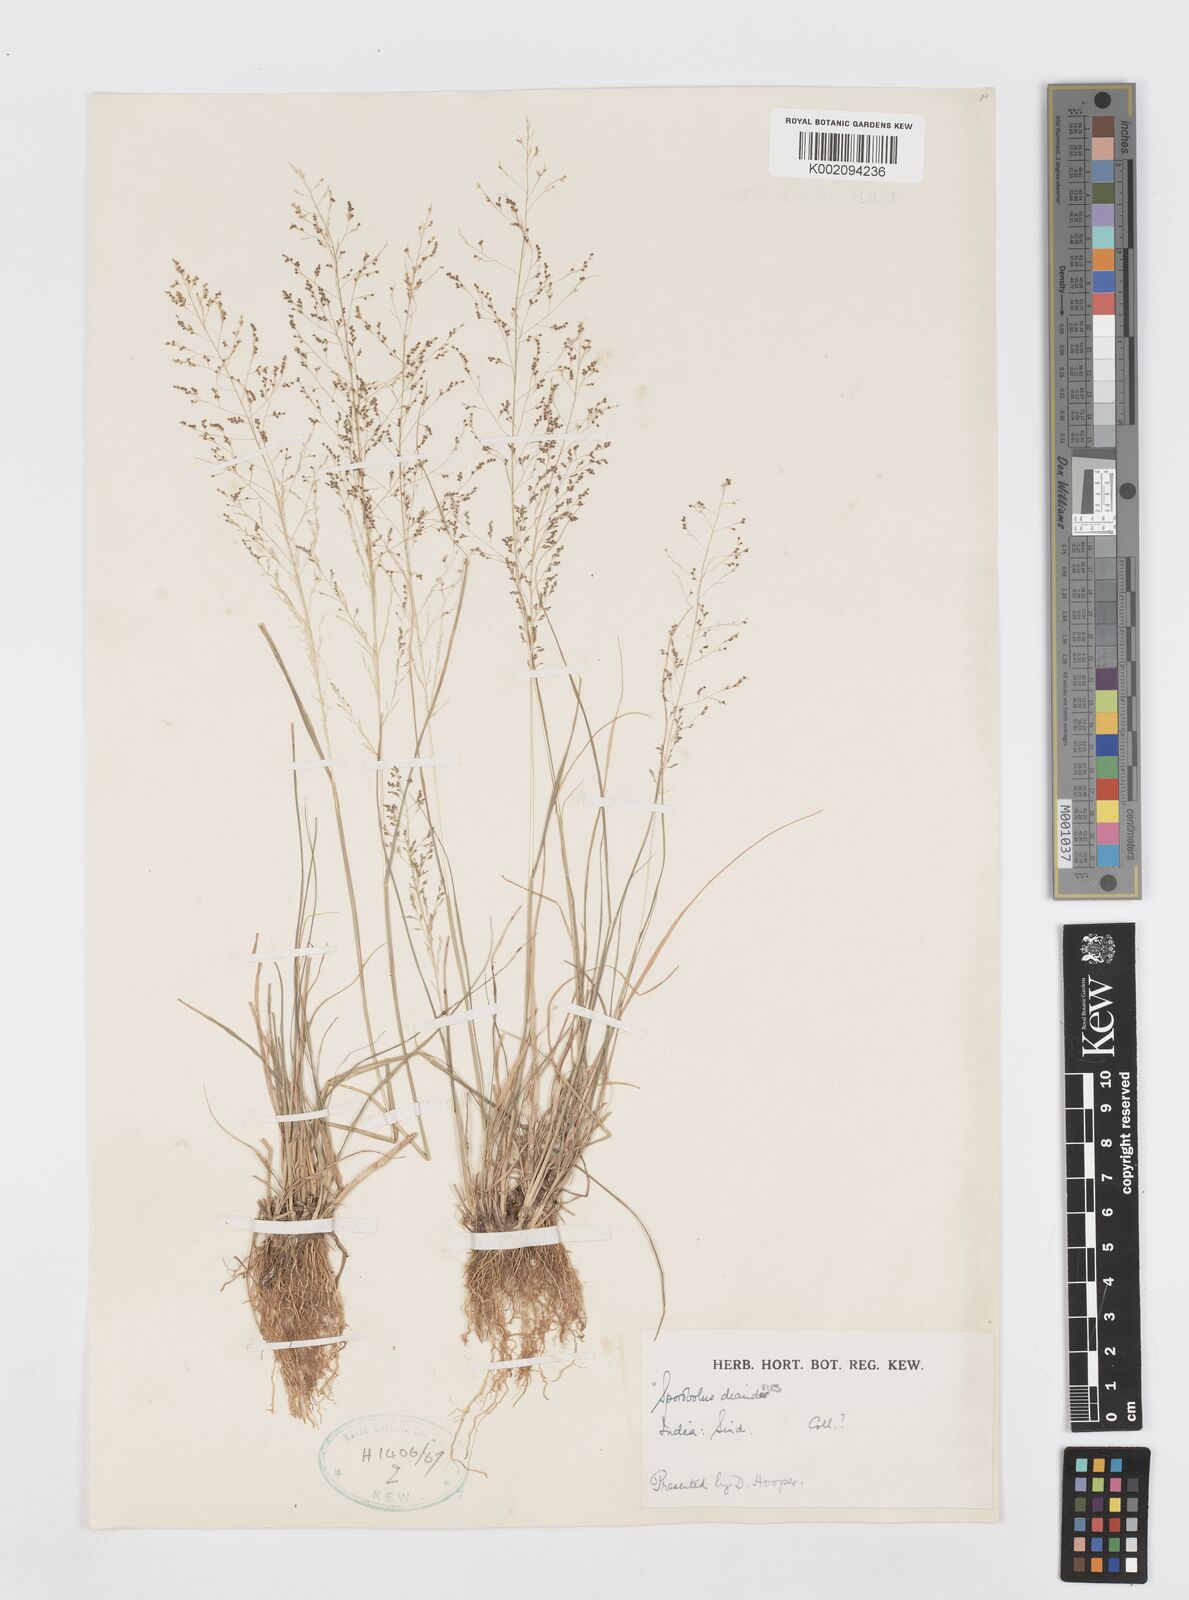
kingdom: Plantae
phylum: Tracheophyta
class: Liliopsida
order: Poales
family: Poaceae
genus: Sporobolus
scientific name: Sporobolus diandrus
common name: Tussock dropseed
